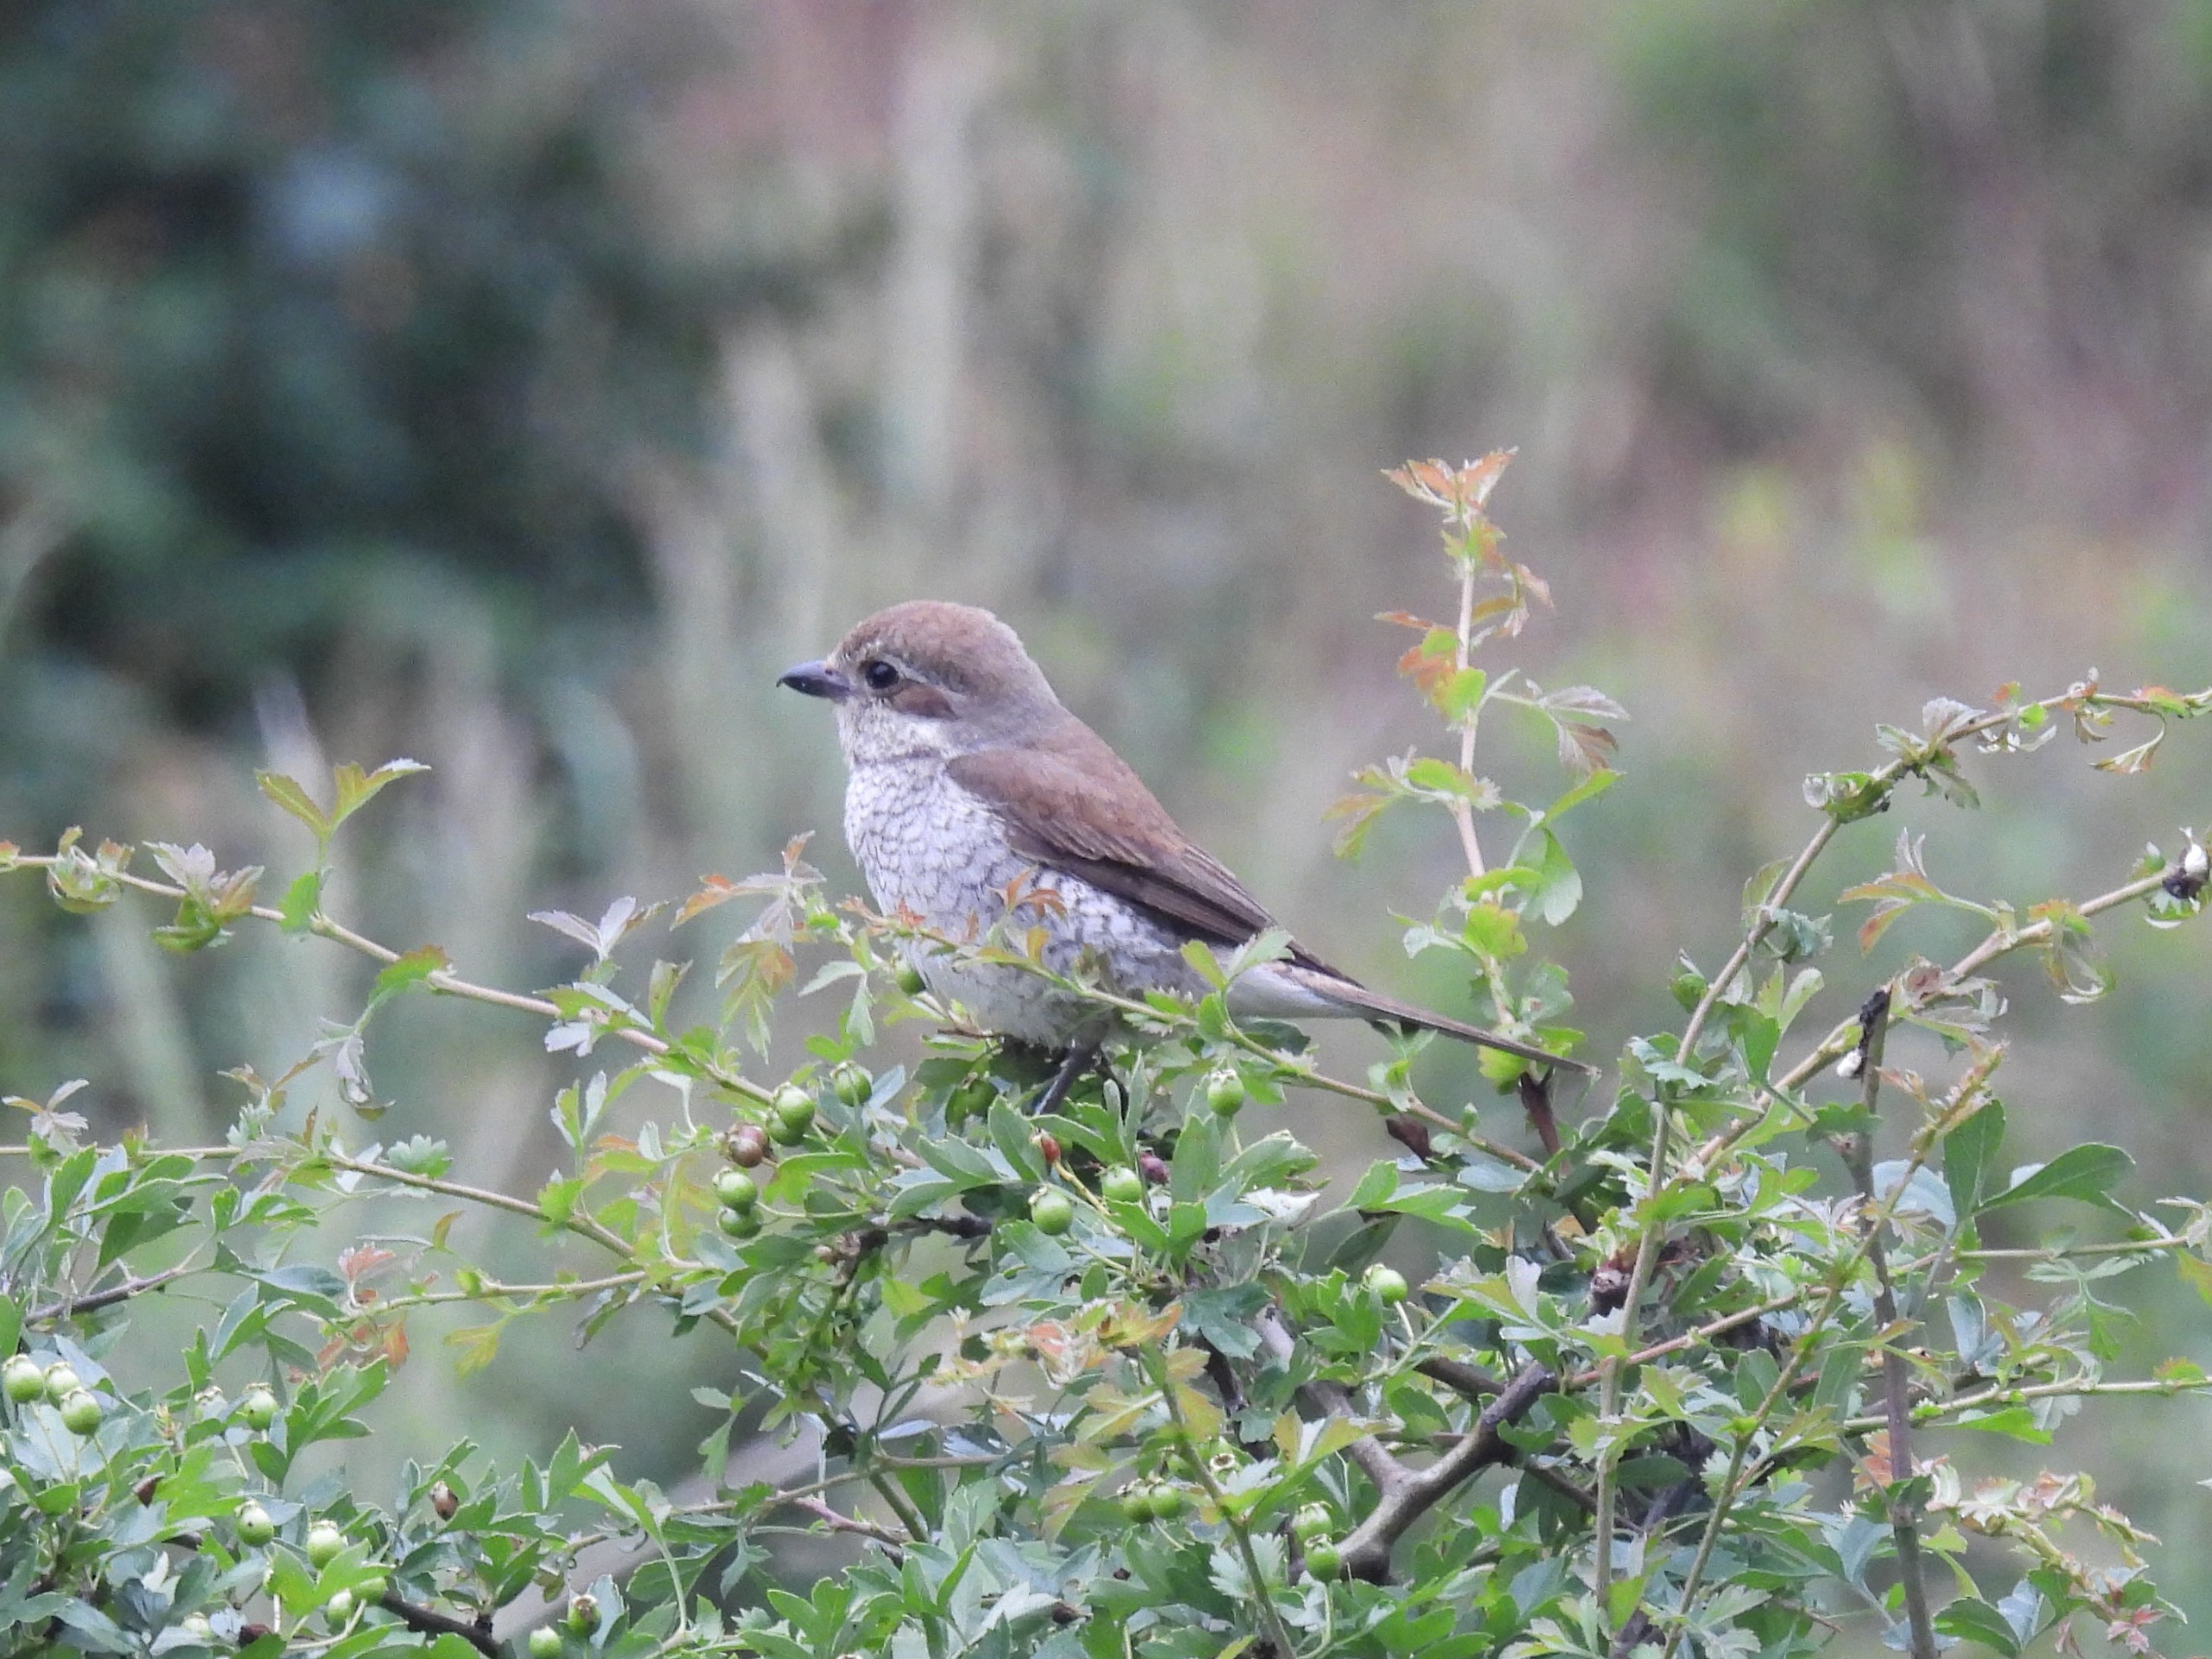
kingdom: Animalia
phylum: Chordata
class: Aves
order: Passeriformes
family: Laniidae
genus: Lanius
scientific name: Lanius collurio
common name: Rødrygget tornskade
